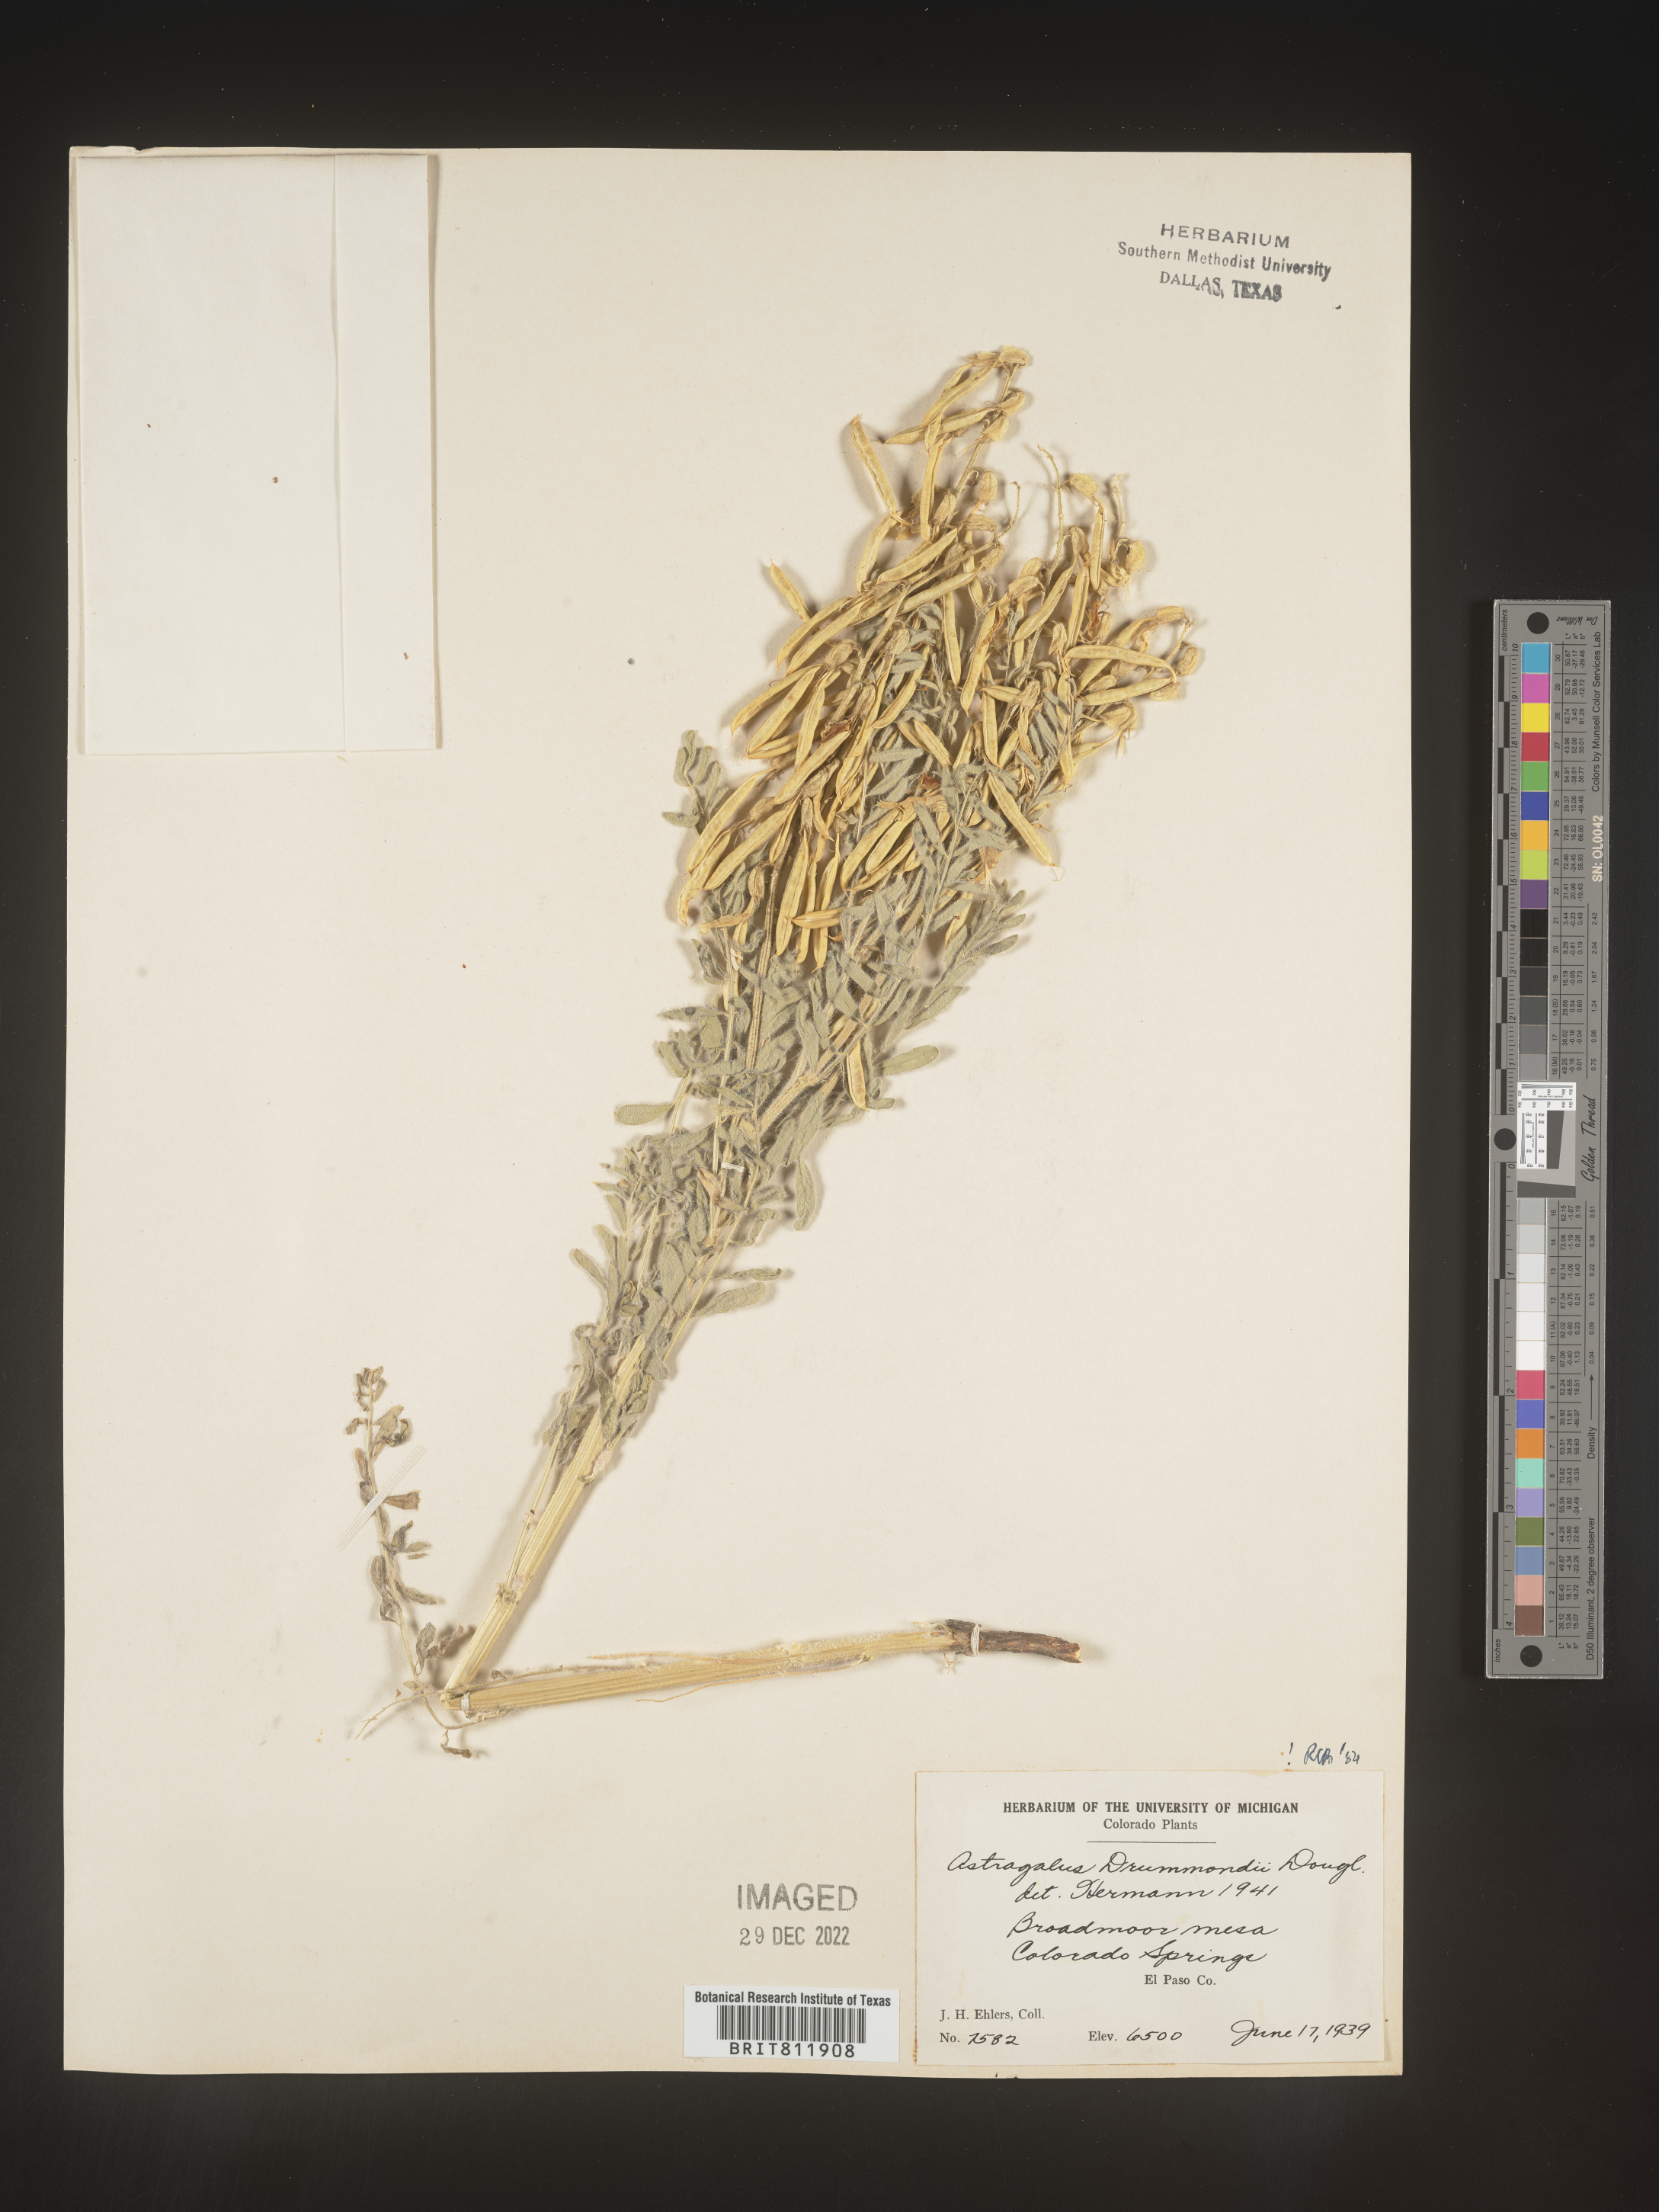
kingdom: Plantae
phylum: Tracheophyta
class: Magnoliopsida
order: Fabales
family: Fabaceae
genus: Astragalus
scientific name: Astragalus drummondii
